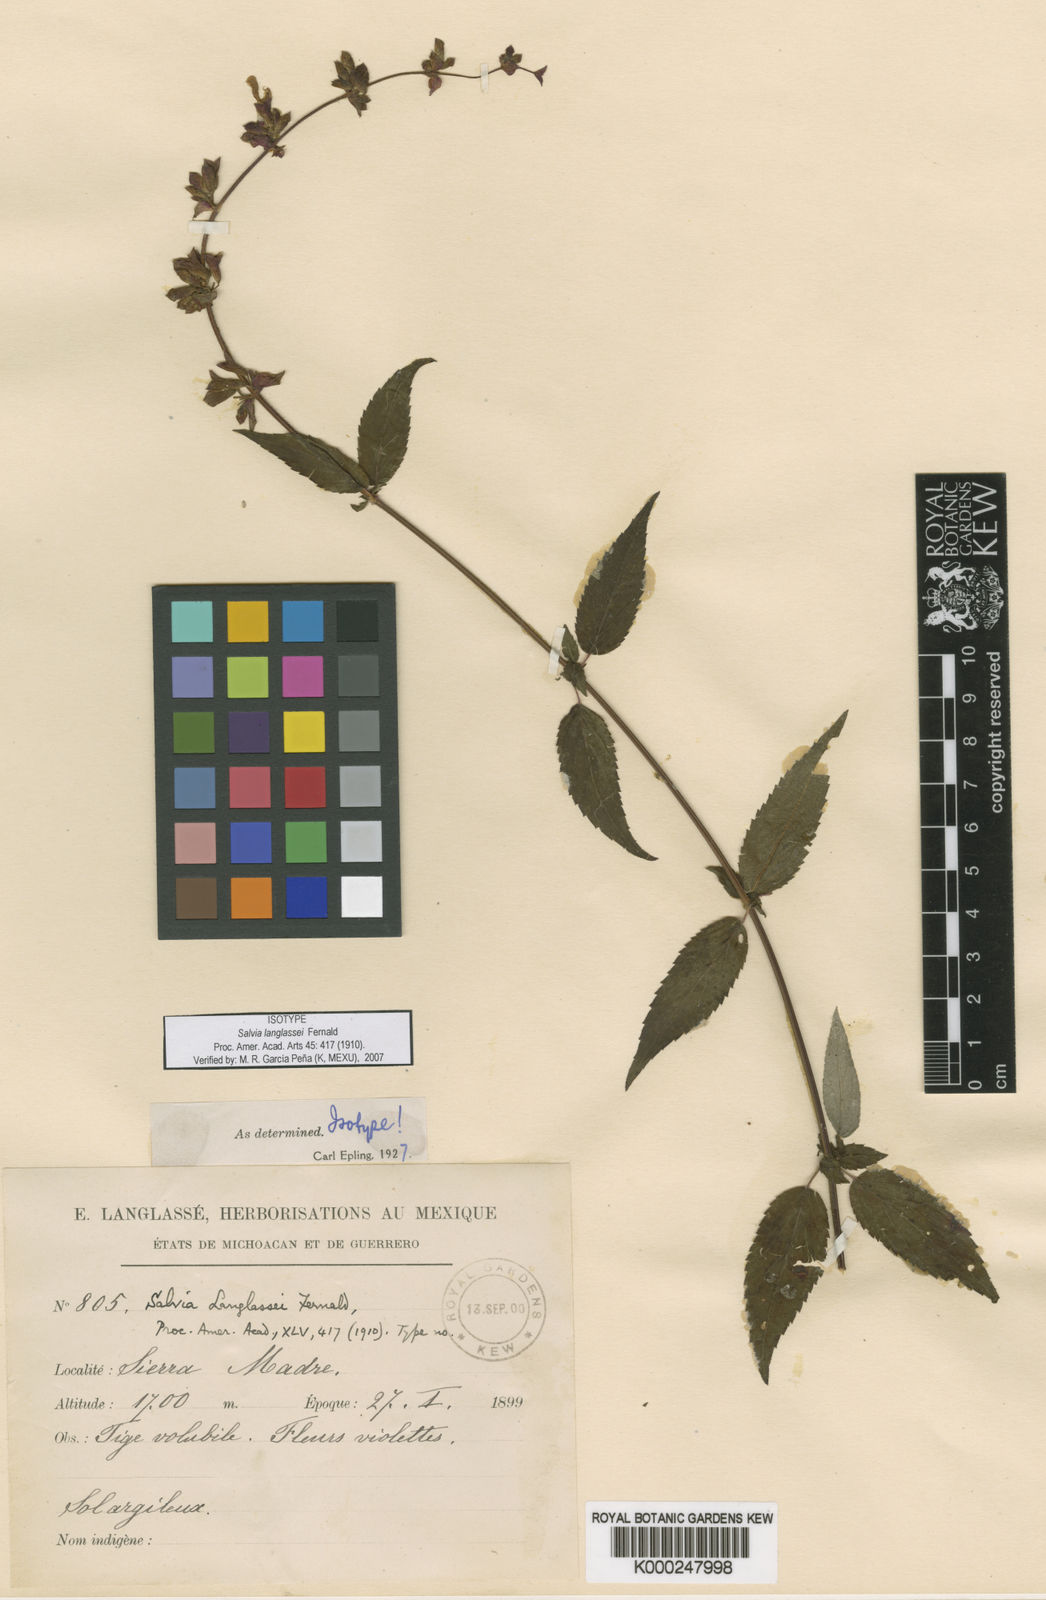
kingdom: Plantae
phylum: Tracheophyta
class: Magnoliopsida
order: Lamiales
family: Lamiaceae
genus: Salvia
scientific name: Salvia langlassei
